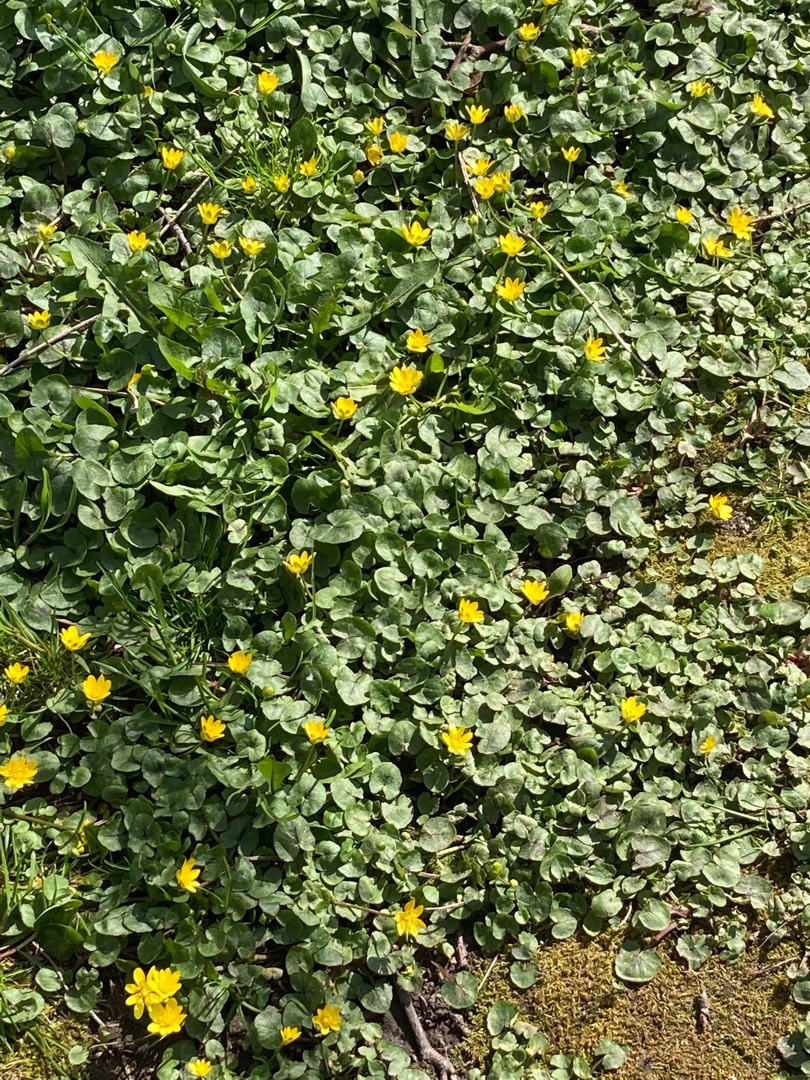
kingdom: Plantae
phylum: Tracheophyta
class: Magnoliopsida
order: Ranunculales
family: Ranunculaceae
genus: Ficaria
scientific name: Ficaria verna
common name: Vorterod
